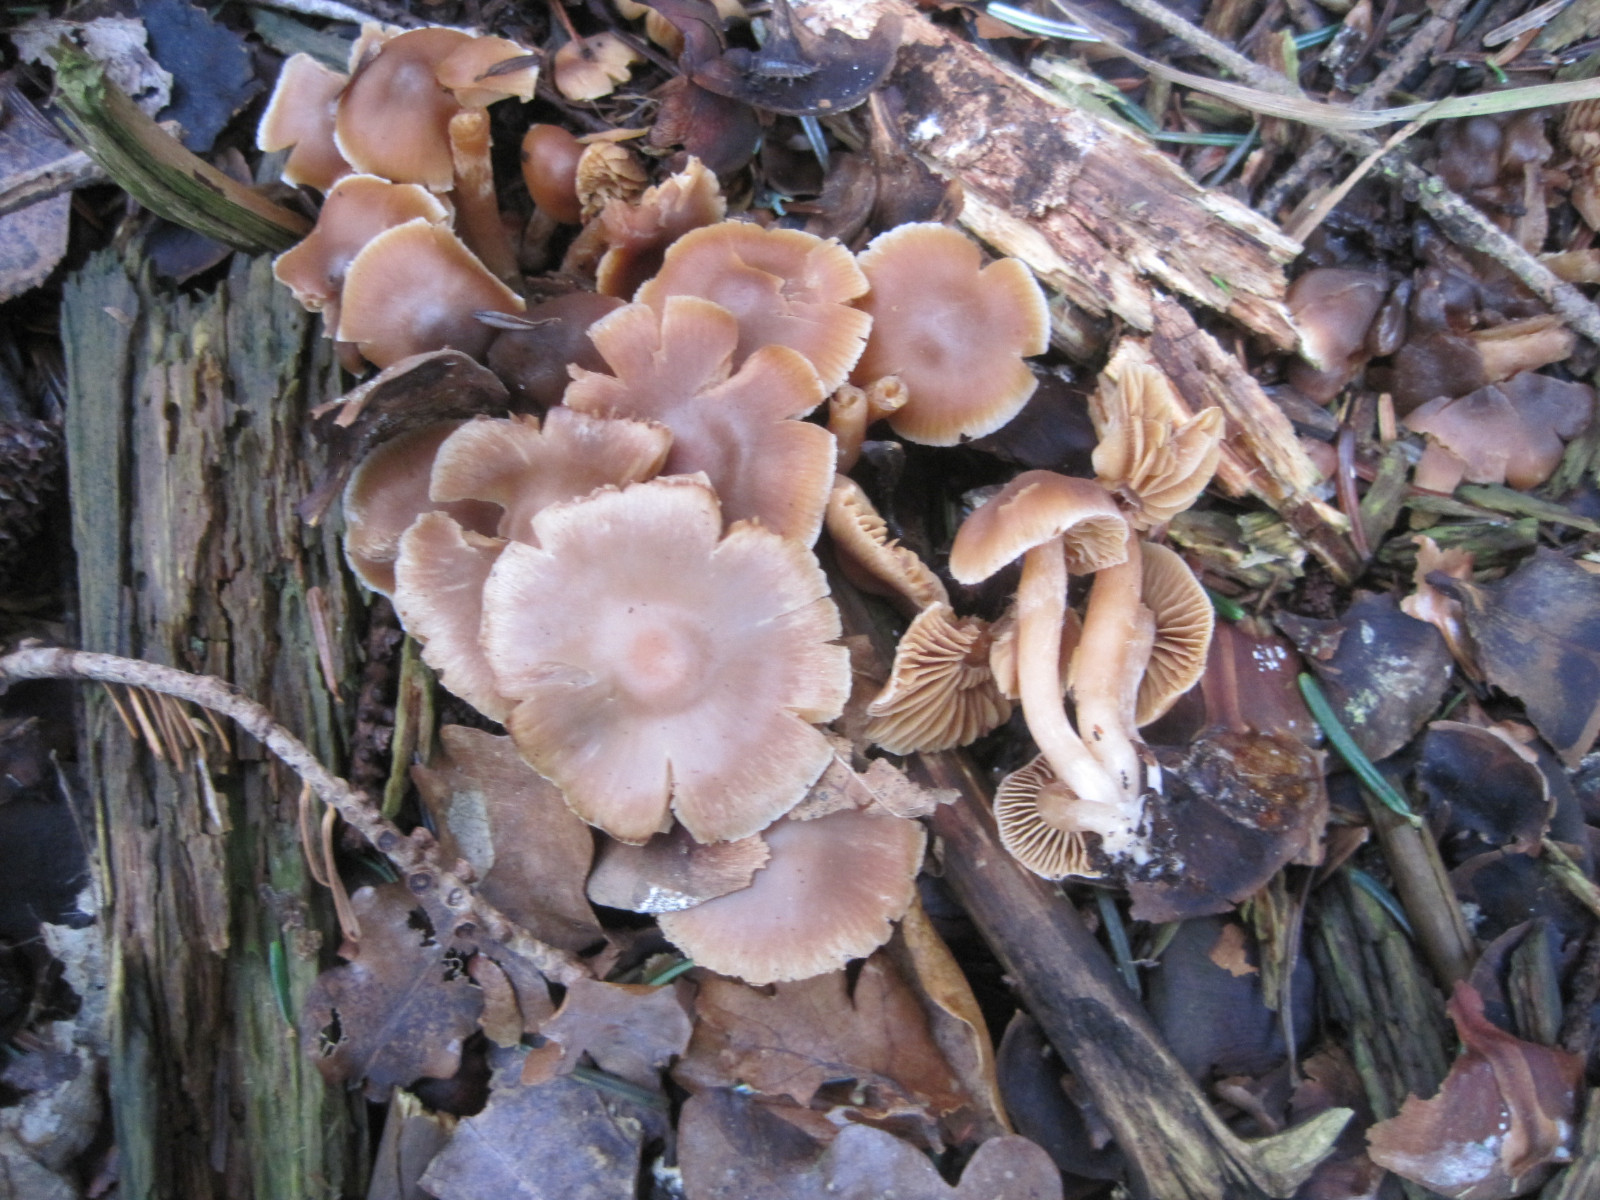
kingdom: Fungi
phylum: Basidiomycota
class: Agaricomycetes
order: Agaricales
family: Tubariaceae
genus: Tubaria
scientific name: Tubaria furfuracea
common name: kliddet fnughat
